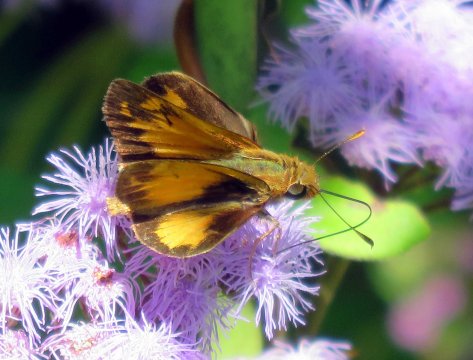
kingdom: Animalia
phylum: Arthropoda
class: Insecta
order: Lepidoptera
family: Hesperiidae
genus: Lon
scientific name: Lon zabulon
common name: Zabulon Skipper
